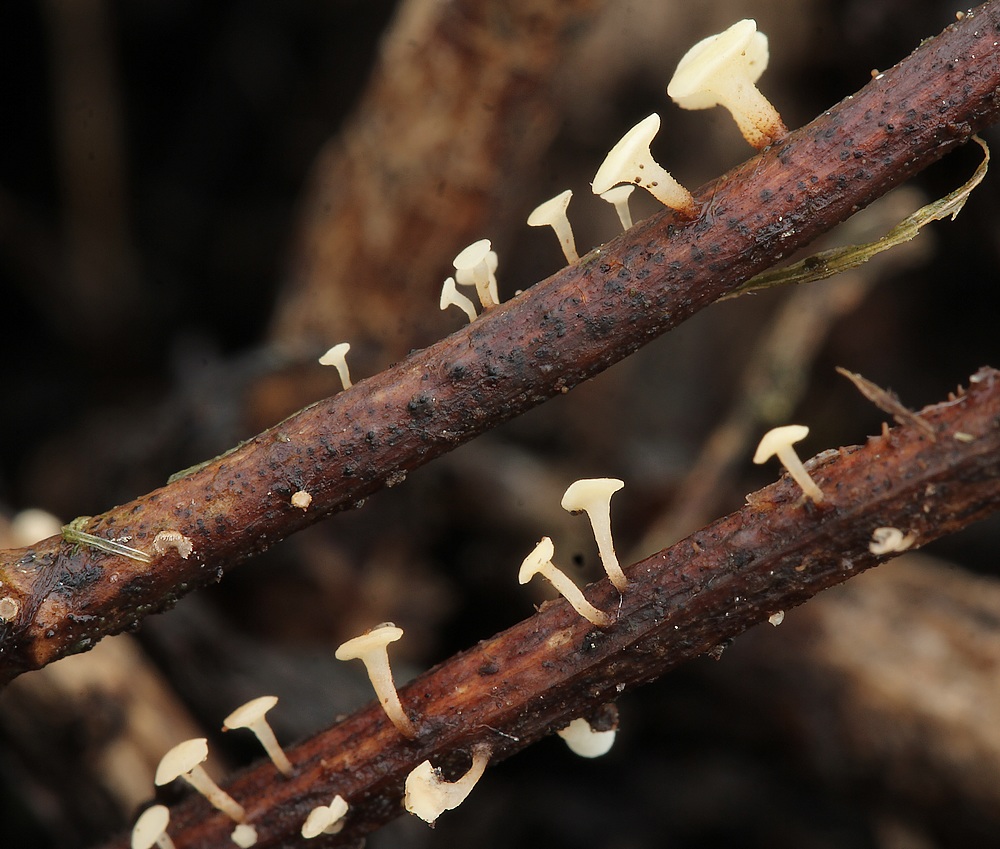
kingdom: Fungi
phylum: Ascomycota
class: Leotiomycetes
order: Helotiales
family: Helotiaceae
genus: Hymenoscyphus
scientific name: Hymenoscyphus scutula
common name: almindelig stilkskive
